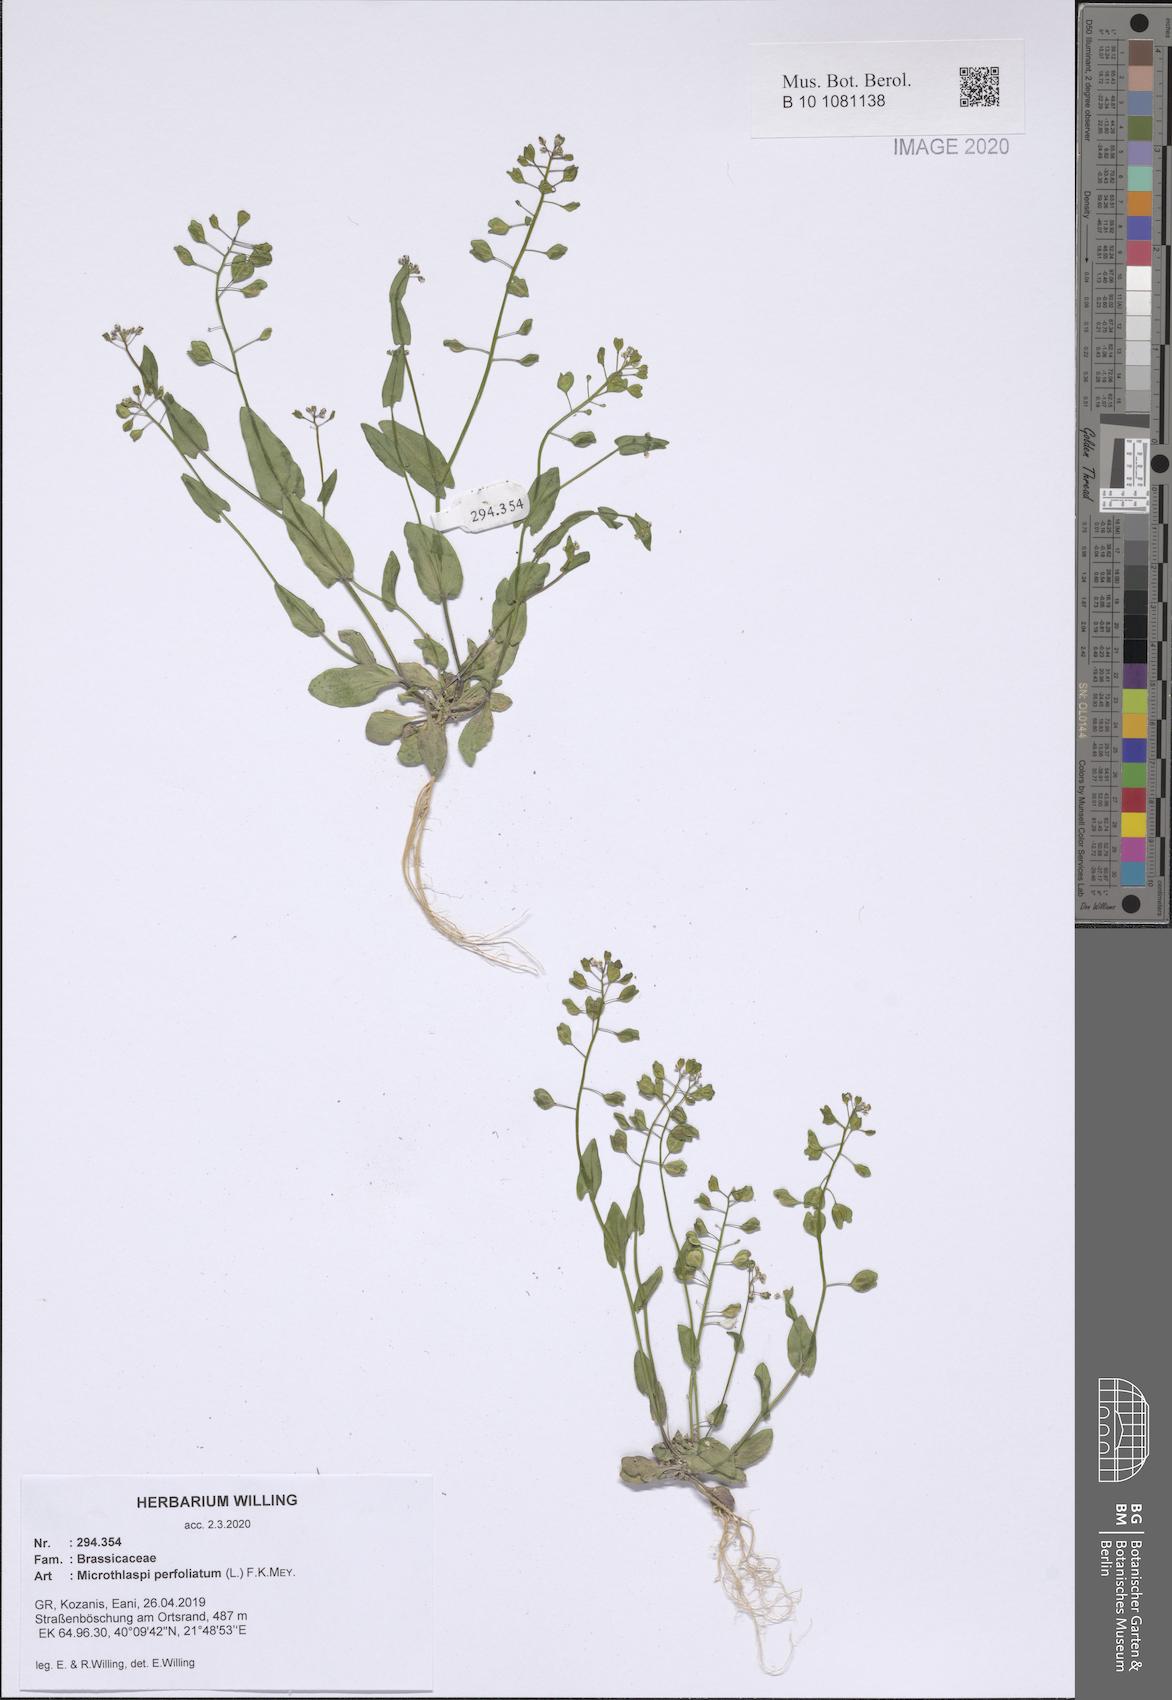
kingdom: Plantae
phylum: Tracheophyta
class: Magnoliopsida
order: Brassicales
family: Brassicaceae
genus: Noccaea
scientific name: Noccaea perfoliata
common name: Perfoliate pennycress
